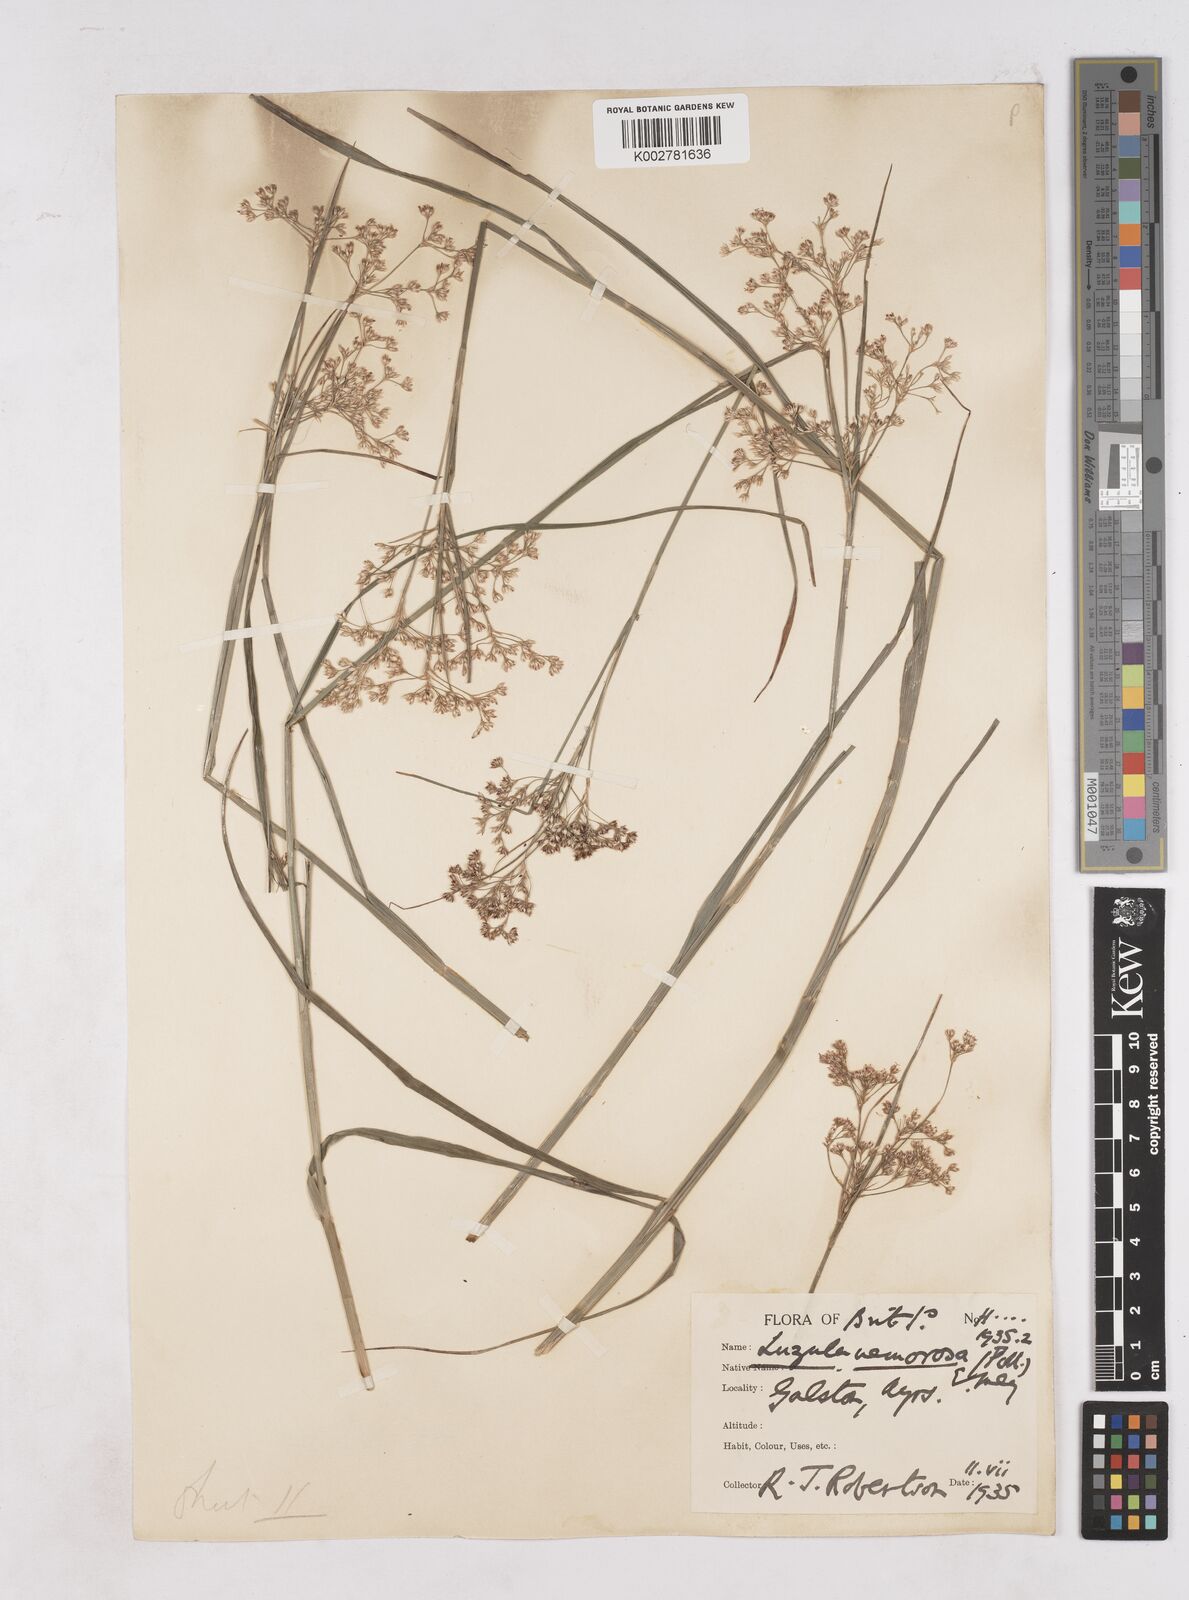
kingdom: Plantae
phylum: Tracheophyta
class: Liliopsida
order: Poales
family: Juncaceae
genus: Luzula
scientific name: Luzula luzuloides
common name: White wood-rush
